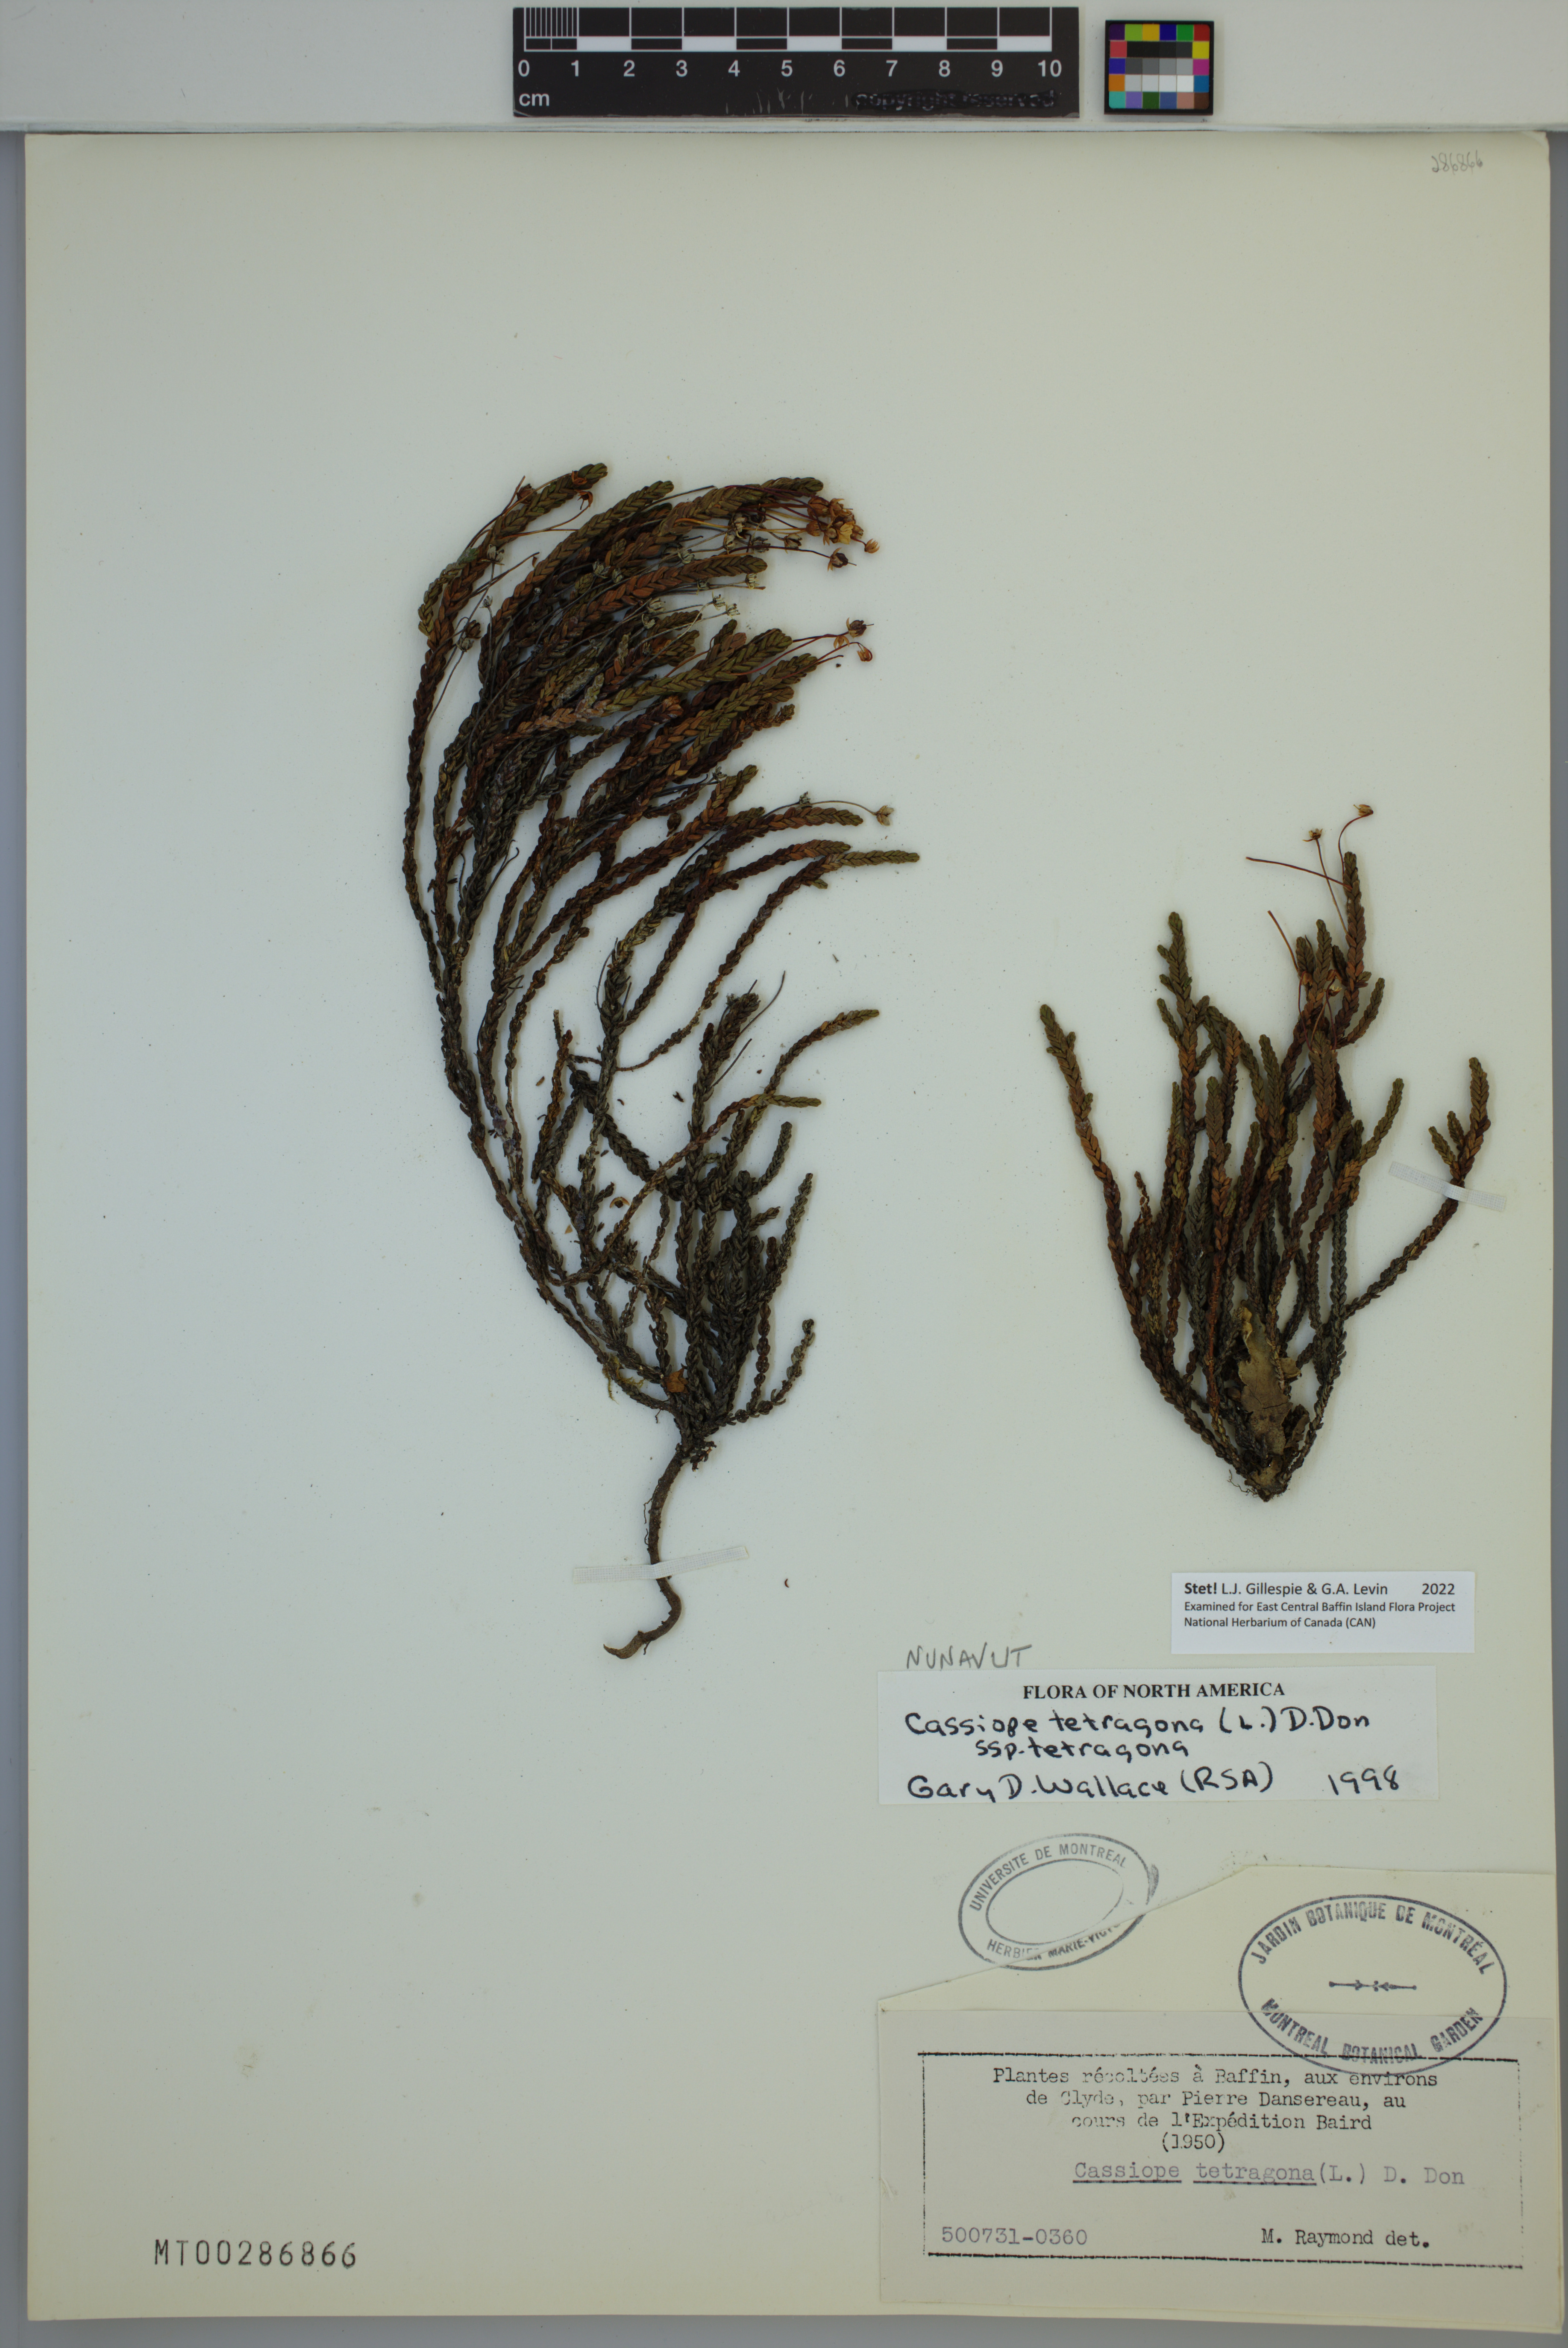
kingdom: Plantae
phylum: Tracheophyta
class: Magnoliopsida
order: Ericales
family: Ericaceae
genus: Cassiope
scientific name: Cassiope tetragona
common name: Arctic bell heather
